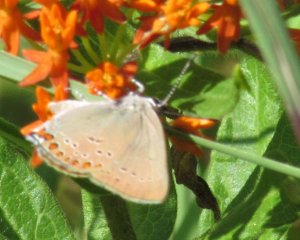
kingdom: Animalia
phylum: Arthropoda
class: Insecta
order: Lepidoptera
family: Lycaenidae
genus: Harkenclenus
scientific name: Harkenclenus titus
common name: Coral Hairstreak
